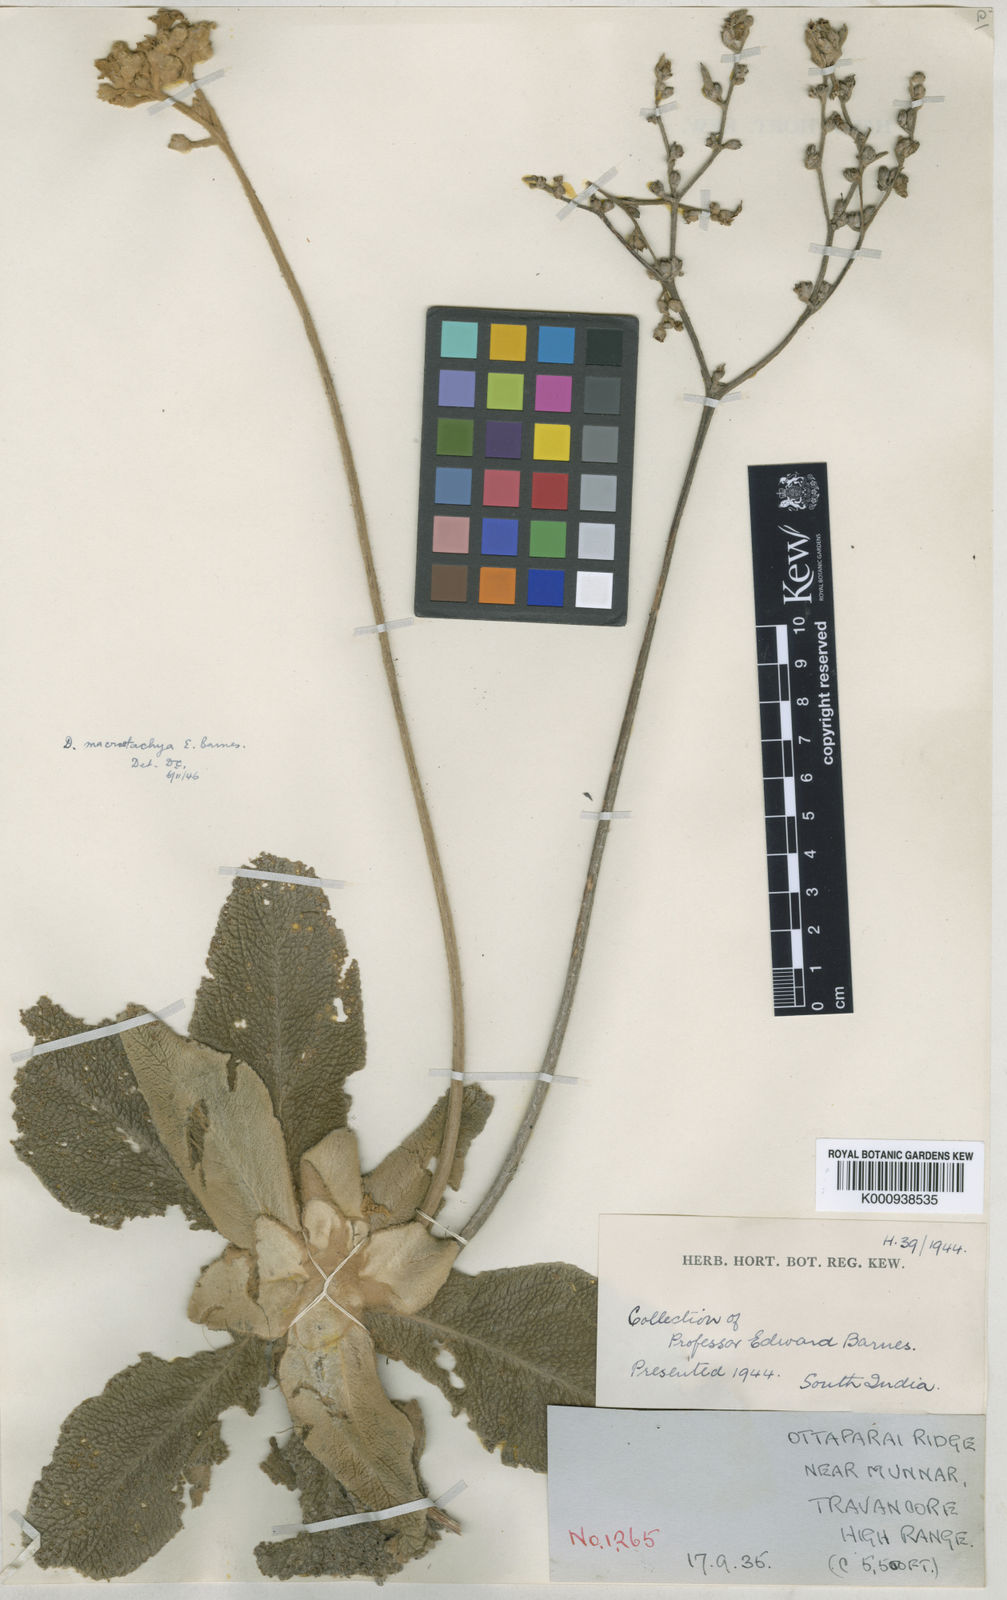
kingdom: Plantae
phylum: Tracheophyta
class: Magnoliopsida
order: Lamiales
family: Gesneriaceae
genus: Henckelia
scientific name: Henckelia macrostachya
